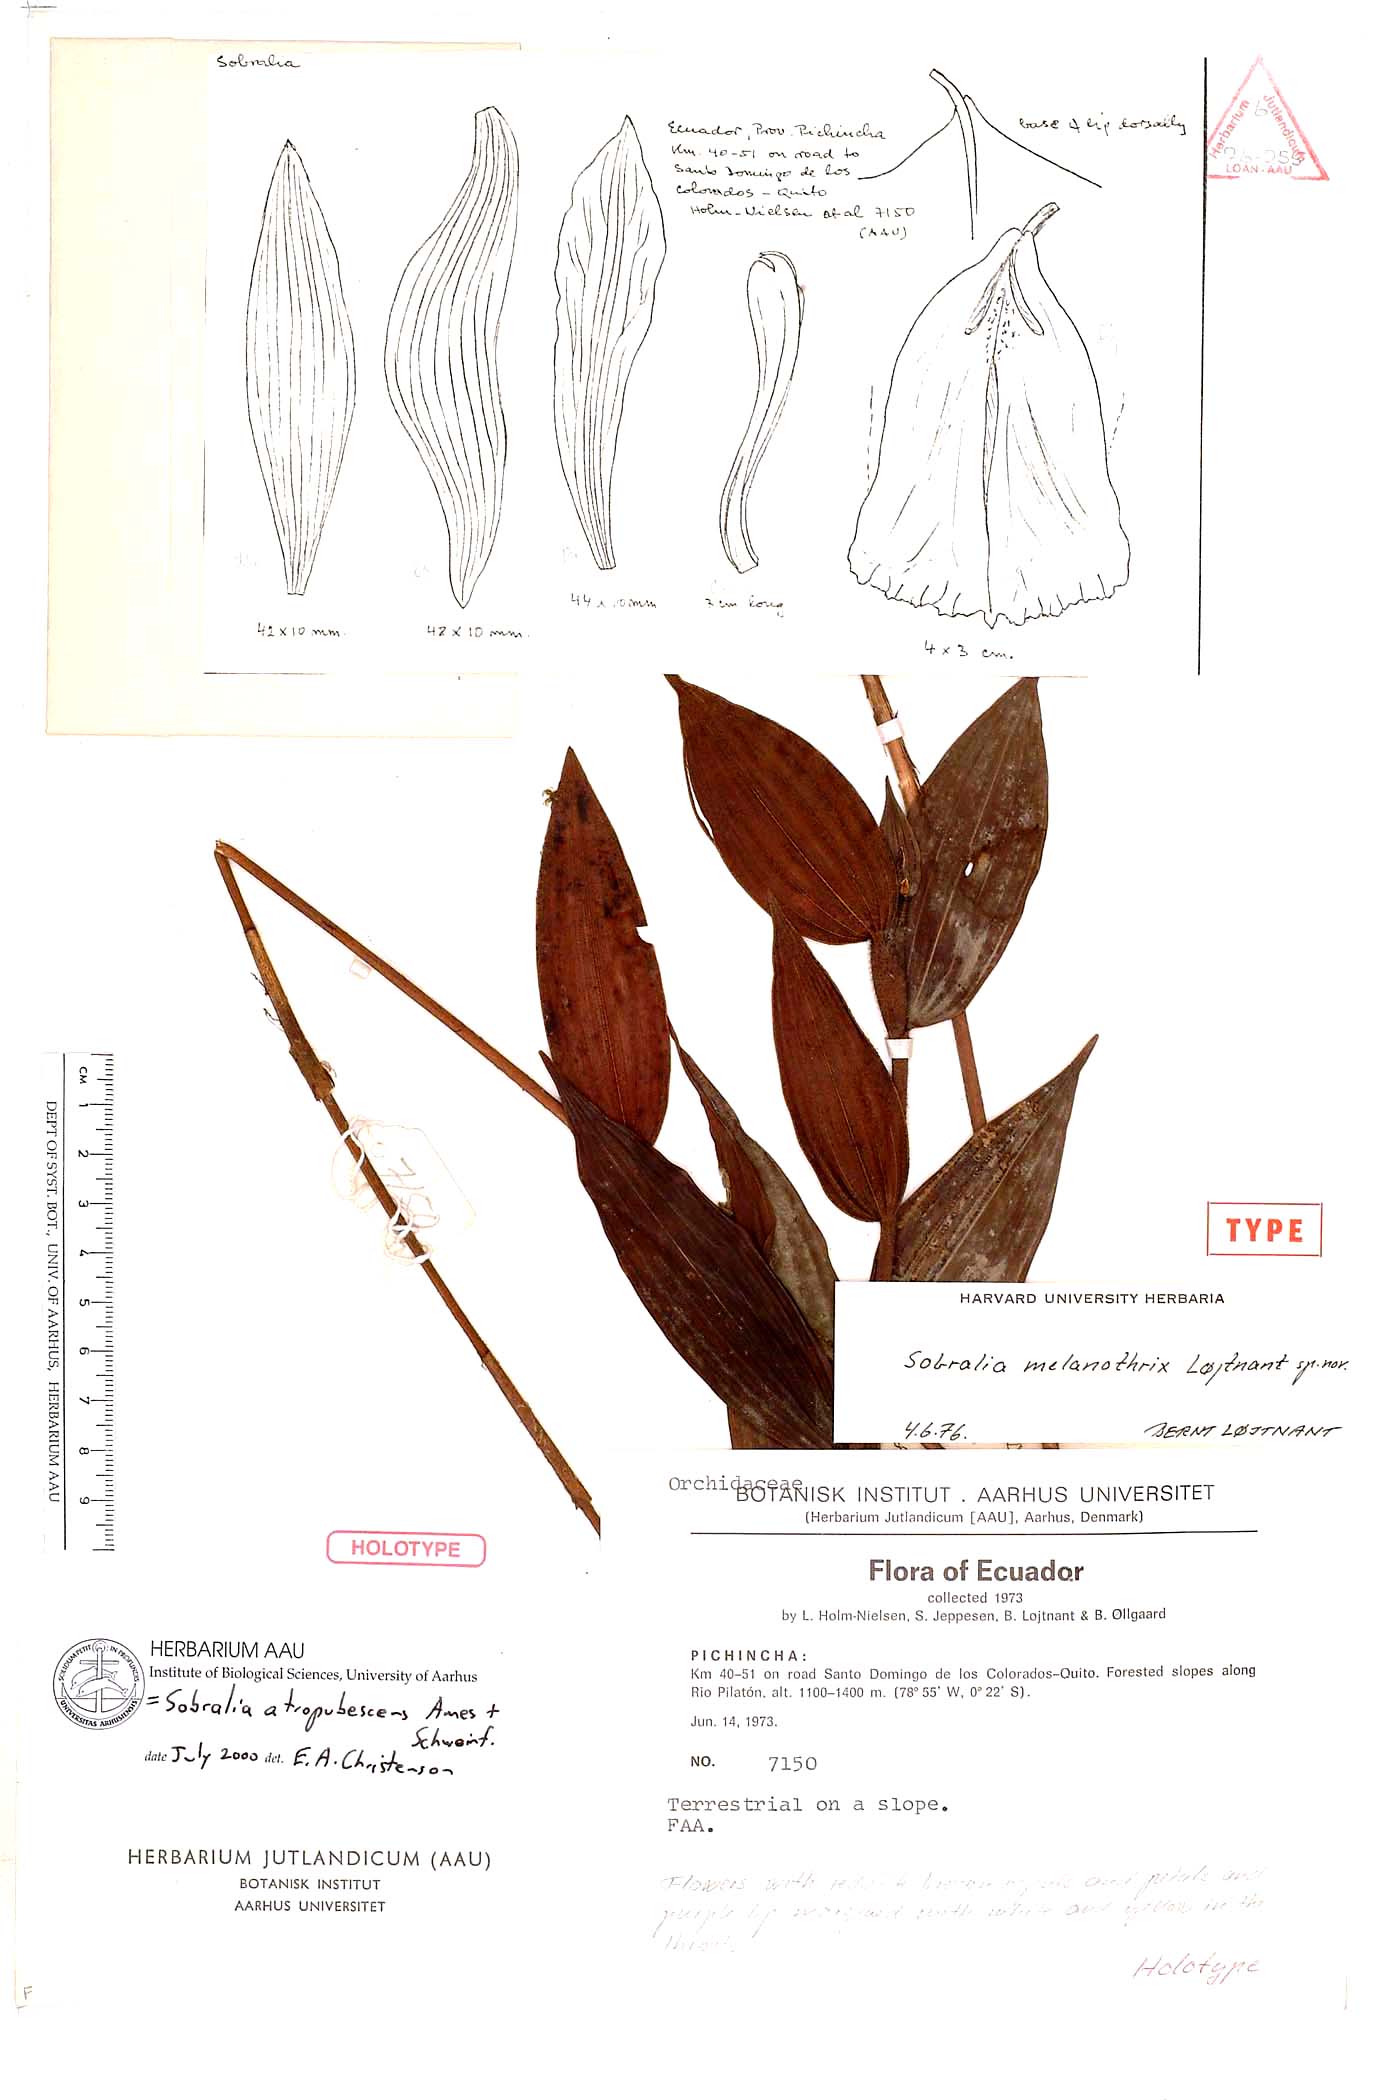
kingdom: Plantae
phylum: Tracheophyta
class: Liliopsida
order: Asparagales
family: Orchidaceae
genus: Sobralia
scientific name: Sobralia atropubescens
